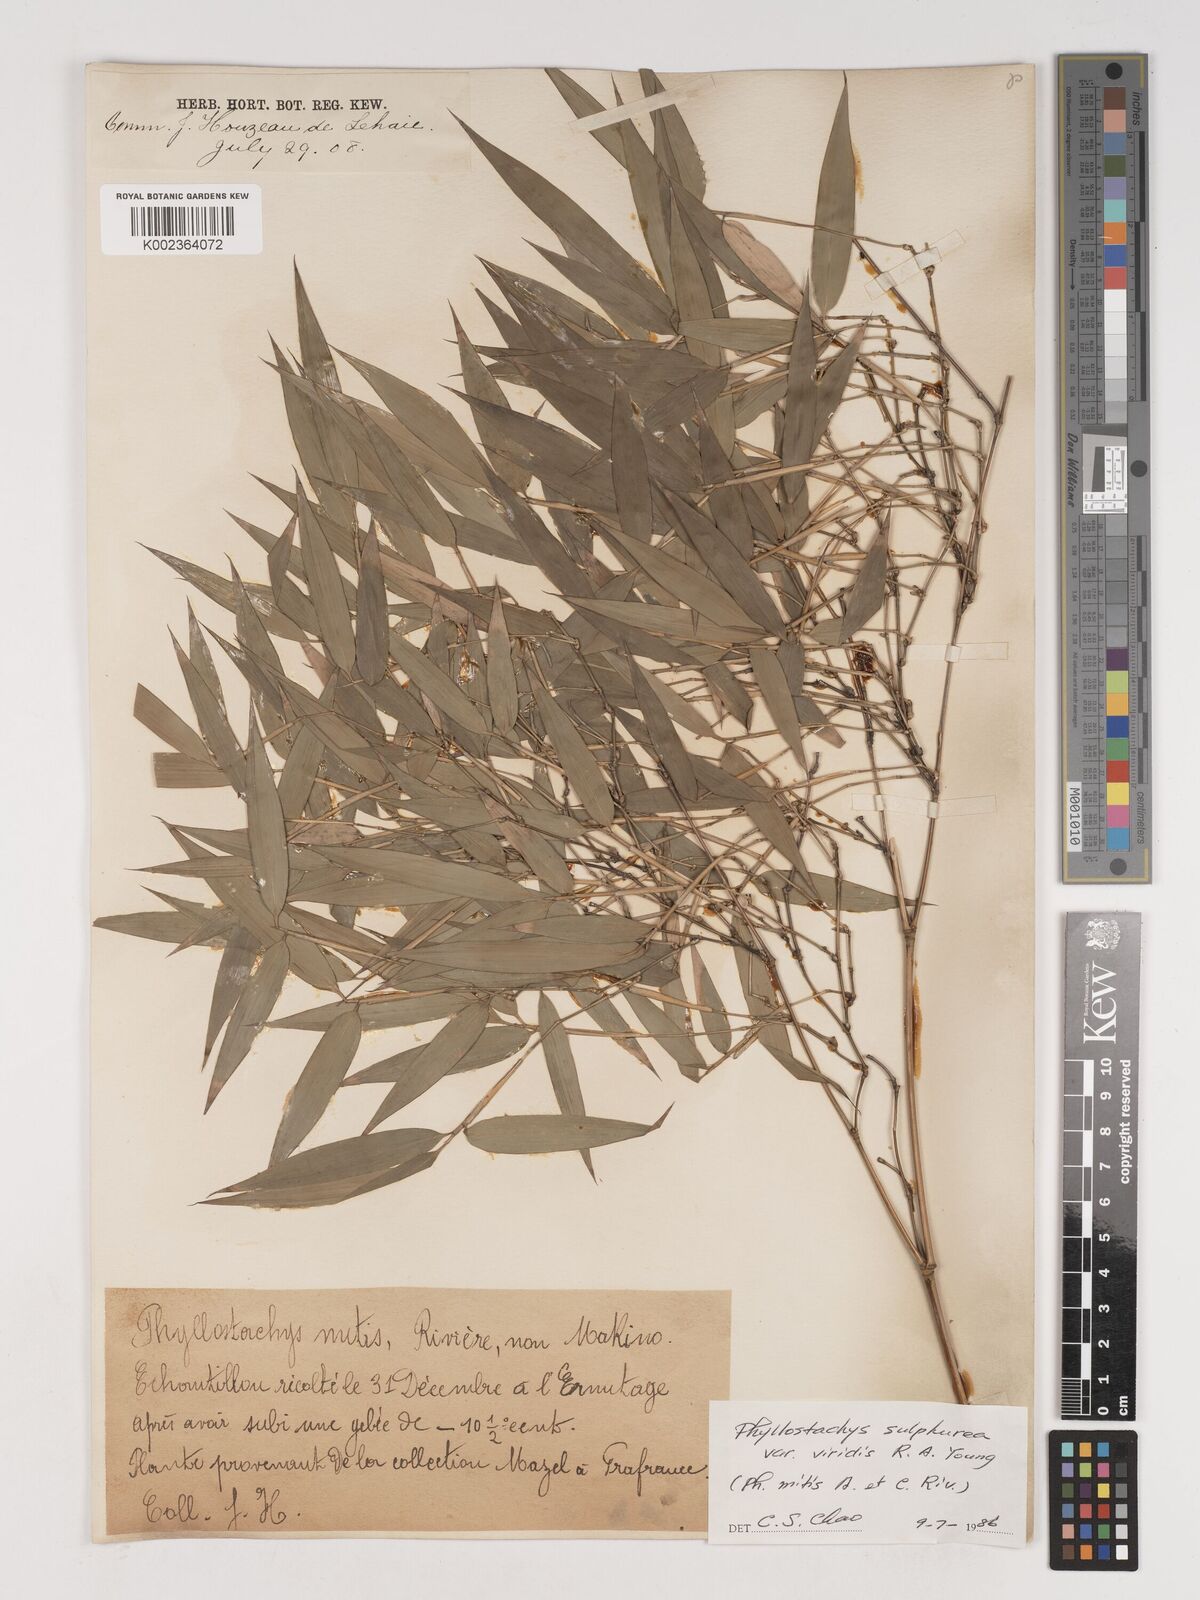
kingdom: Plantae
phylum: Tracheophyta
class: Liliopsida
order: Poales
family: Poaceae
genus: Phyllostachys
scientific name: Phyllostachys sulphurea
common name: Sulphur bamboo
